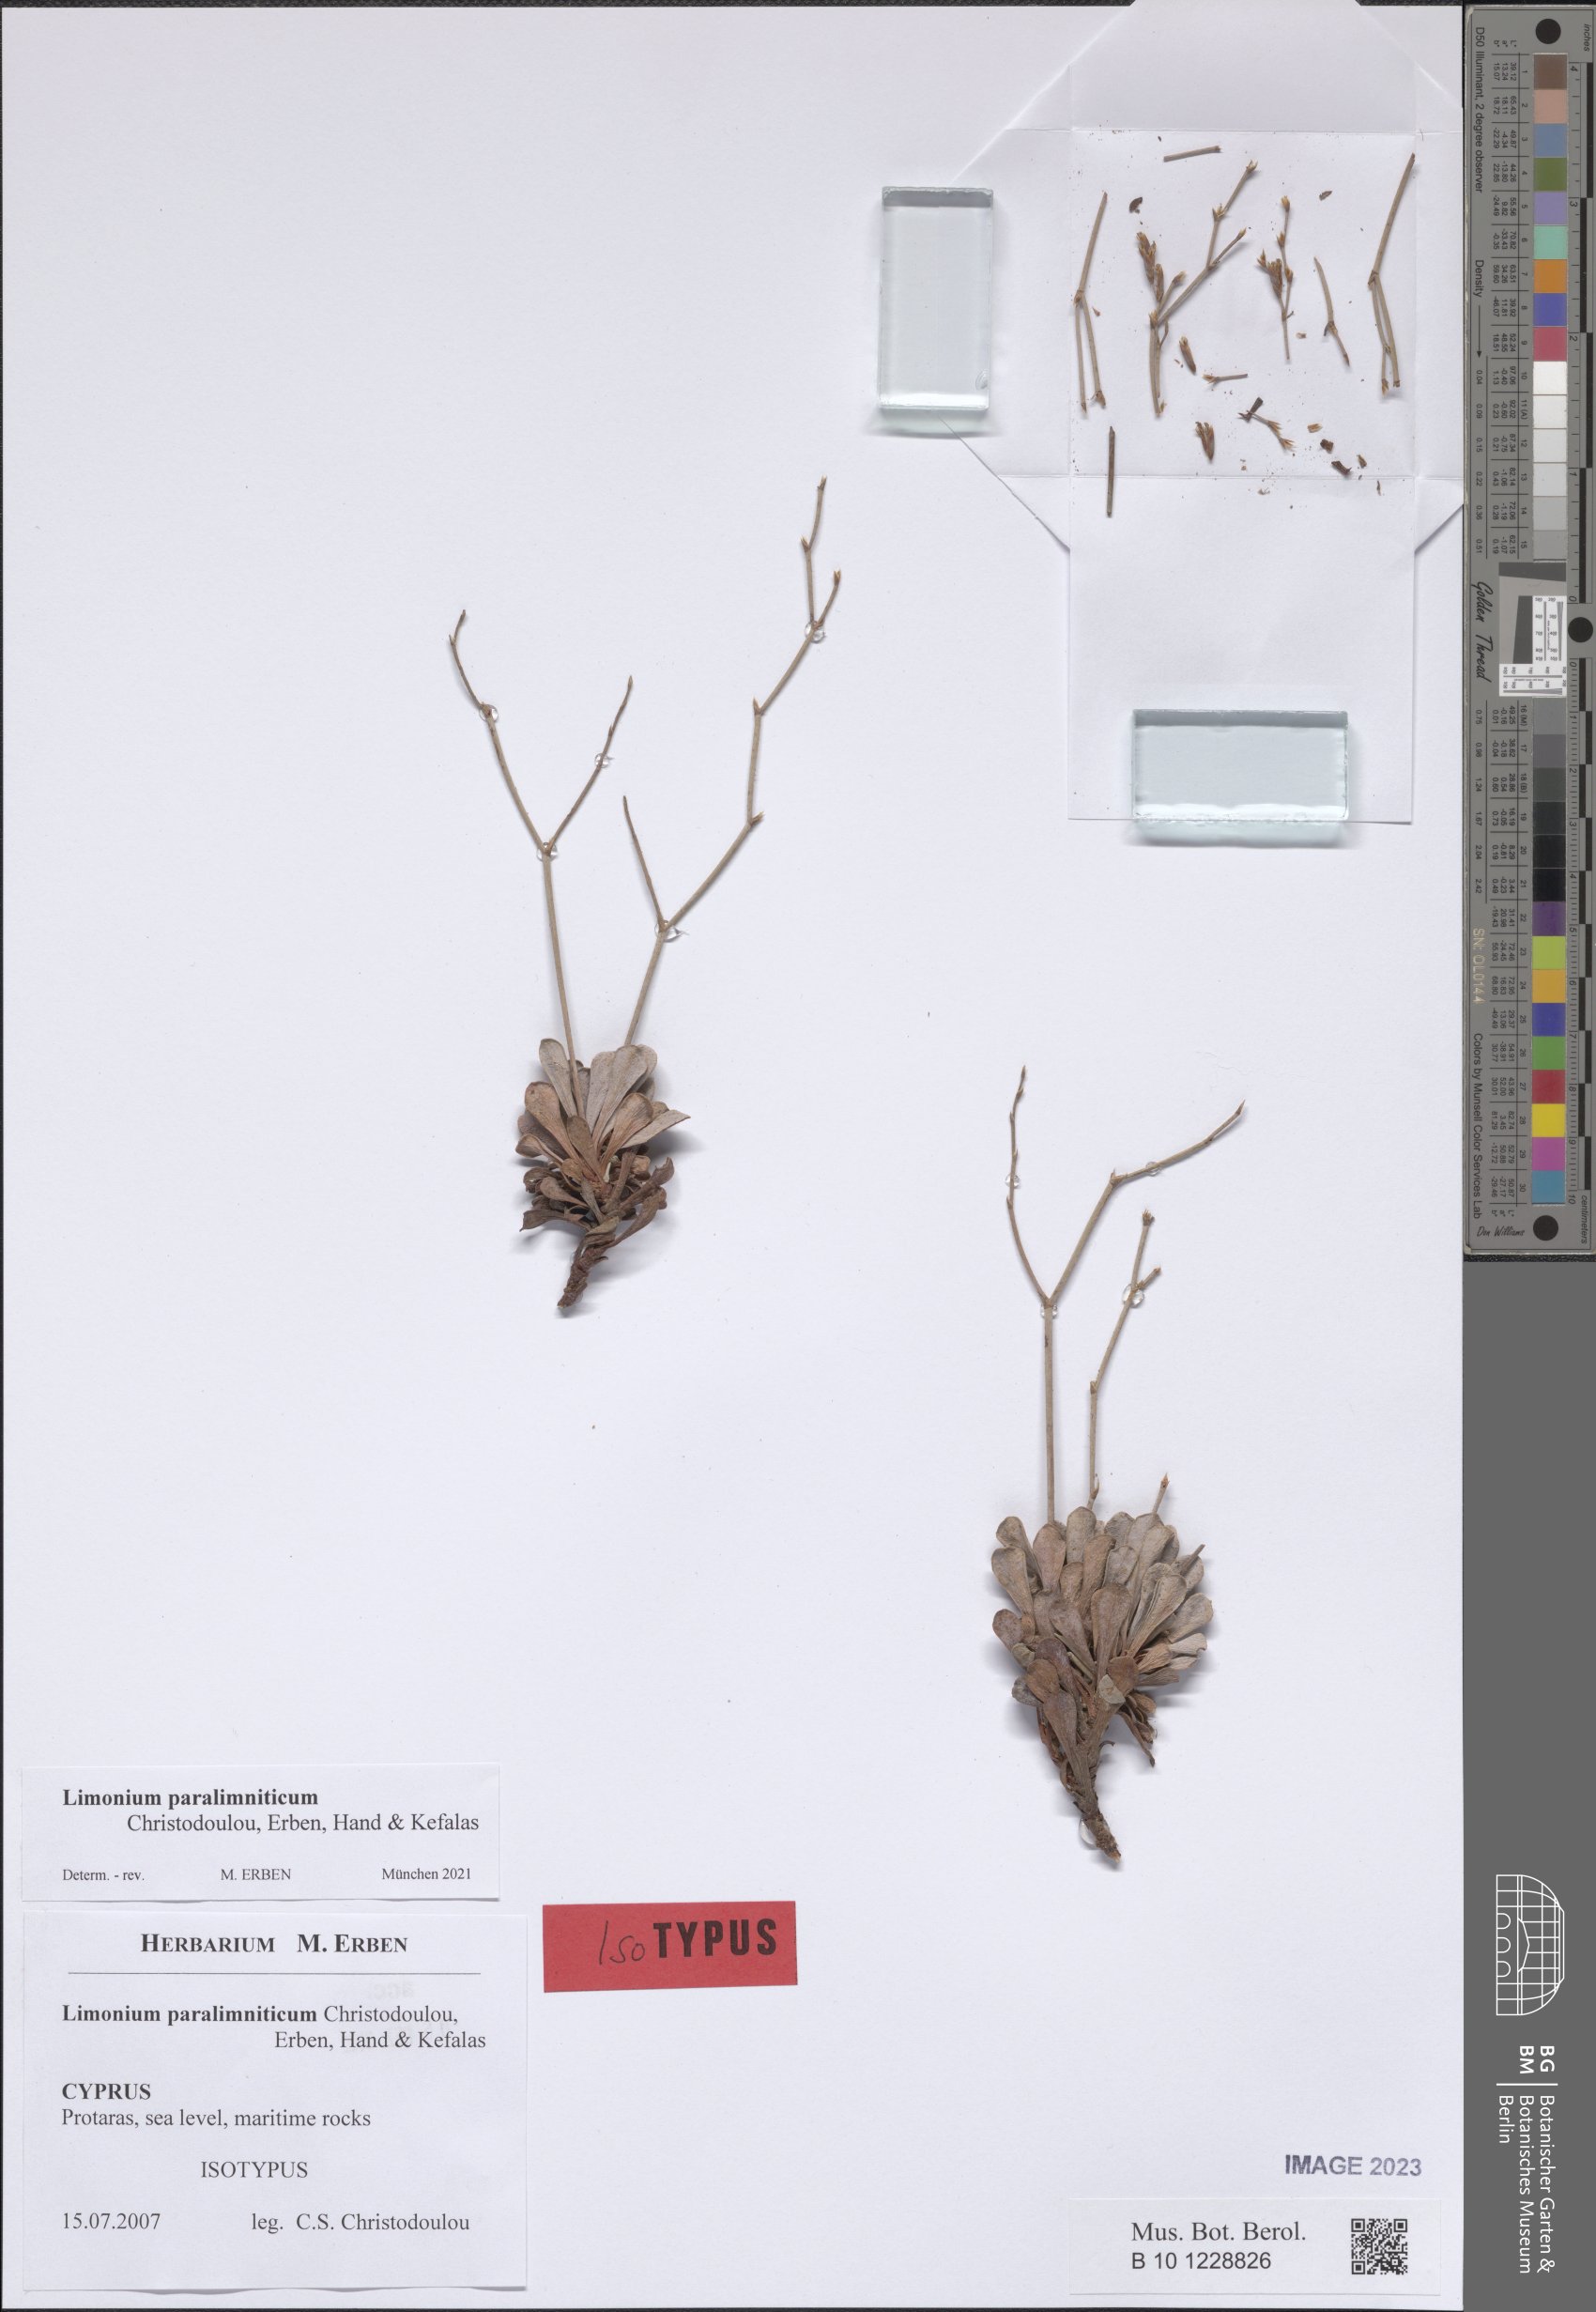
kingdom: Plantae
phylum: Tracheophyta
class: Magnoliopsida
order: Caryophyllales
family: Plumbaginaceae
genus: Limonium
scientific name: Limonium paralimniticum
